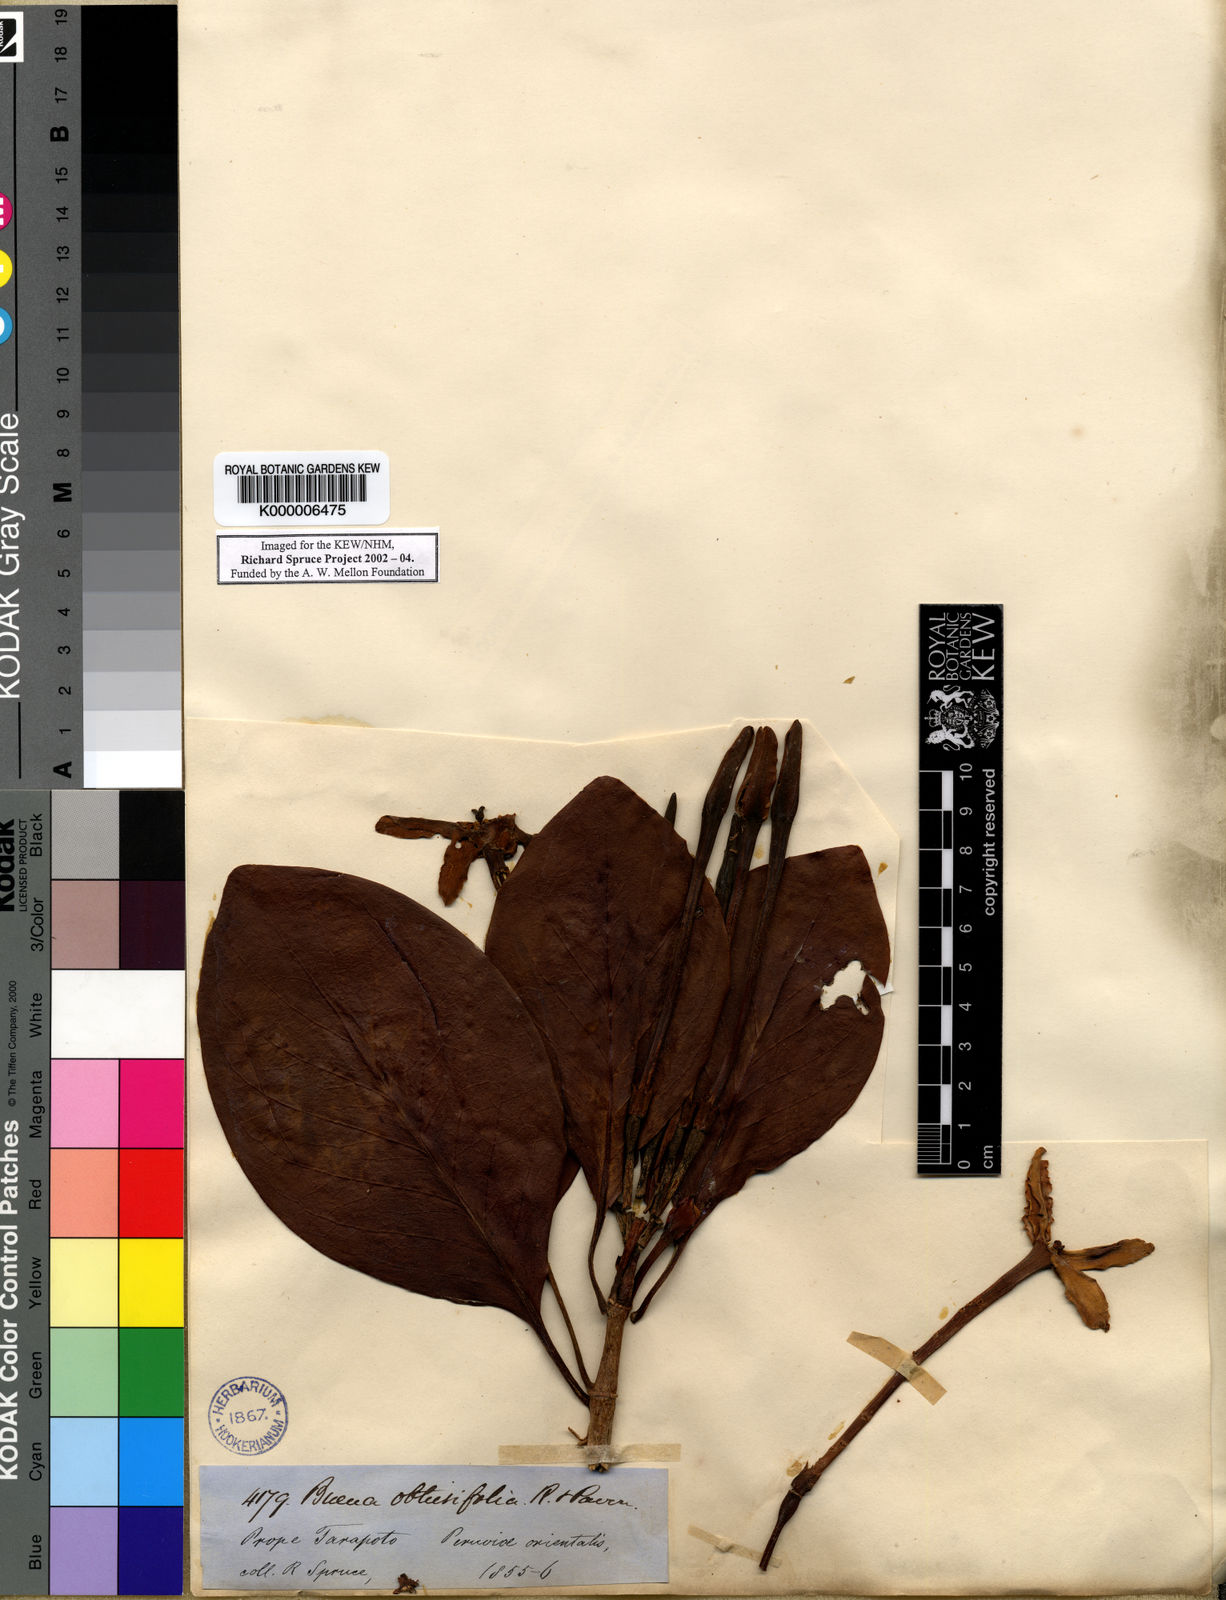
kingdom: Plantae
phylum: Tracheophyta
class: Magnoliopsida
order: Gentianales
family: Rubiaceae
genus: Cosmibuena
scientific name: Cosmibuena grandiflora
